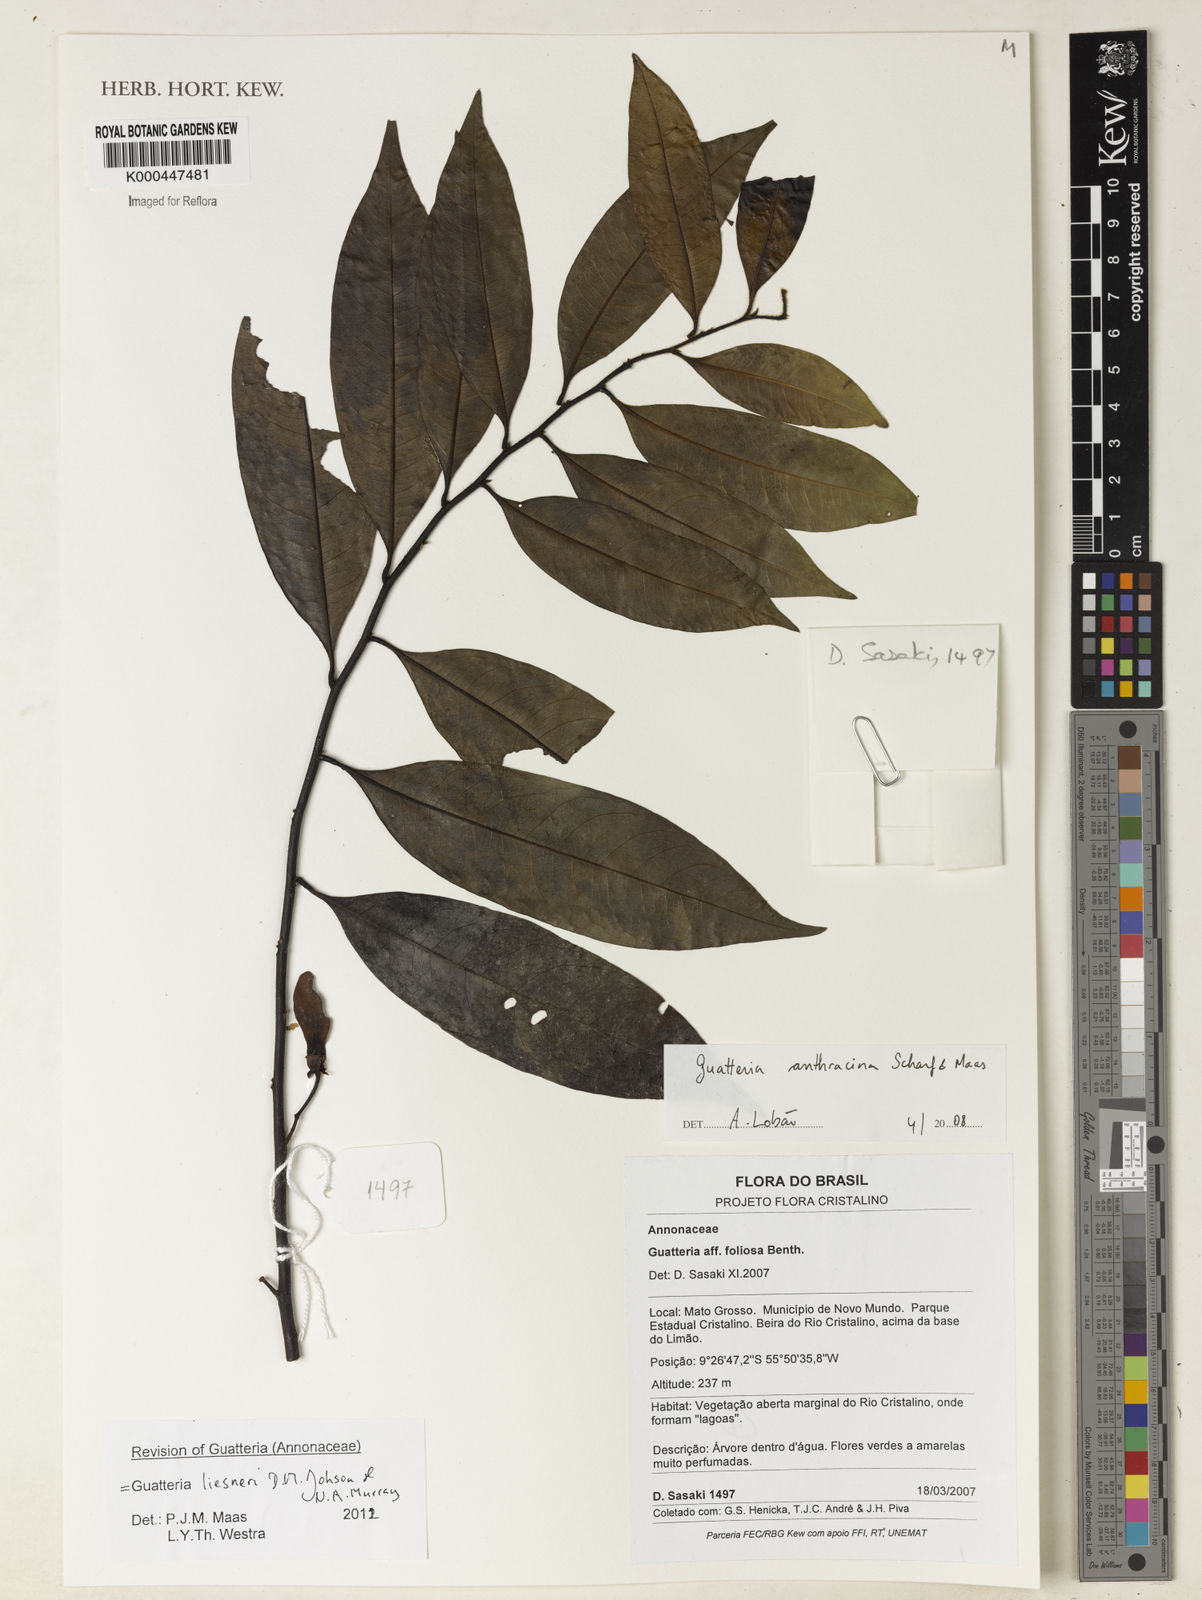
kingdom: Plantae
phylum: Tracheophyta
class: Magnoliopsida
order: Magnoliales
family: Annonaceae
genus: Guatteria
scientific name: Guatteria anthracina
